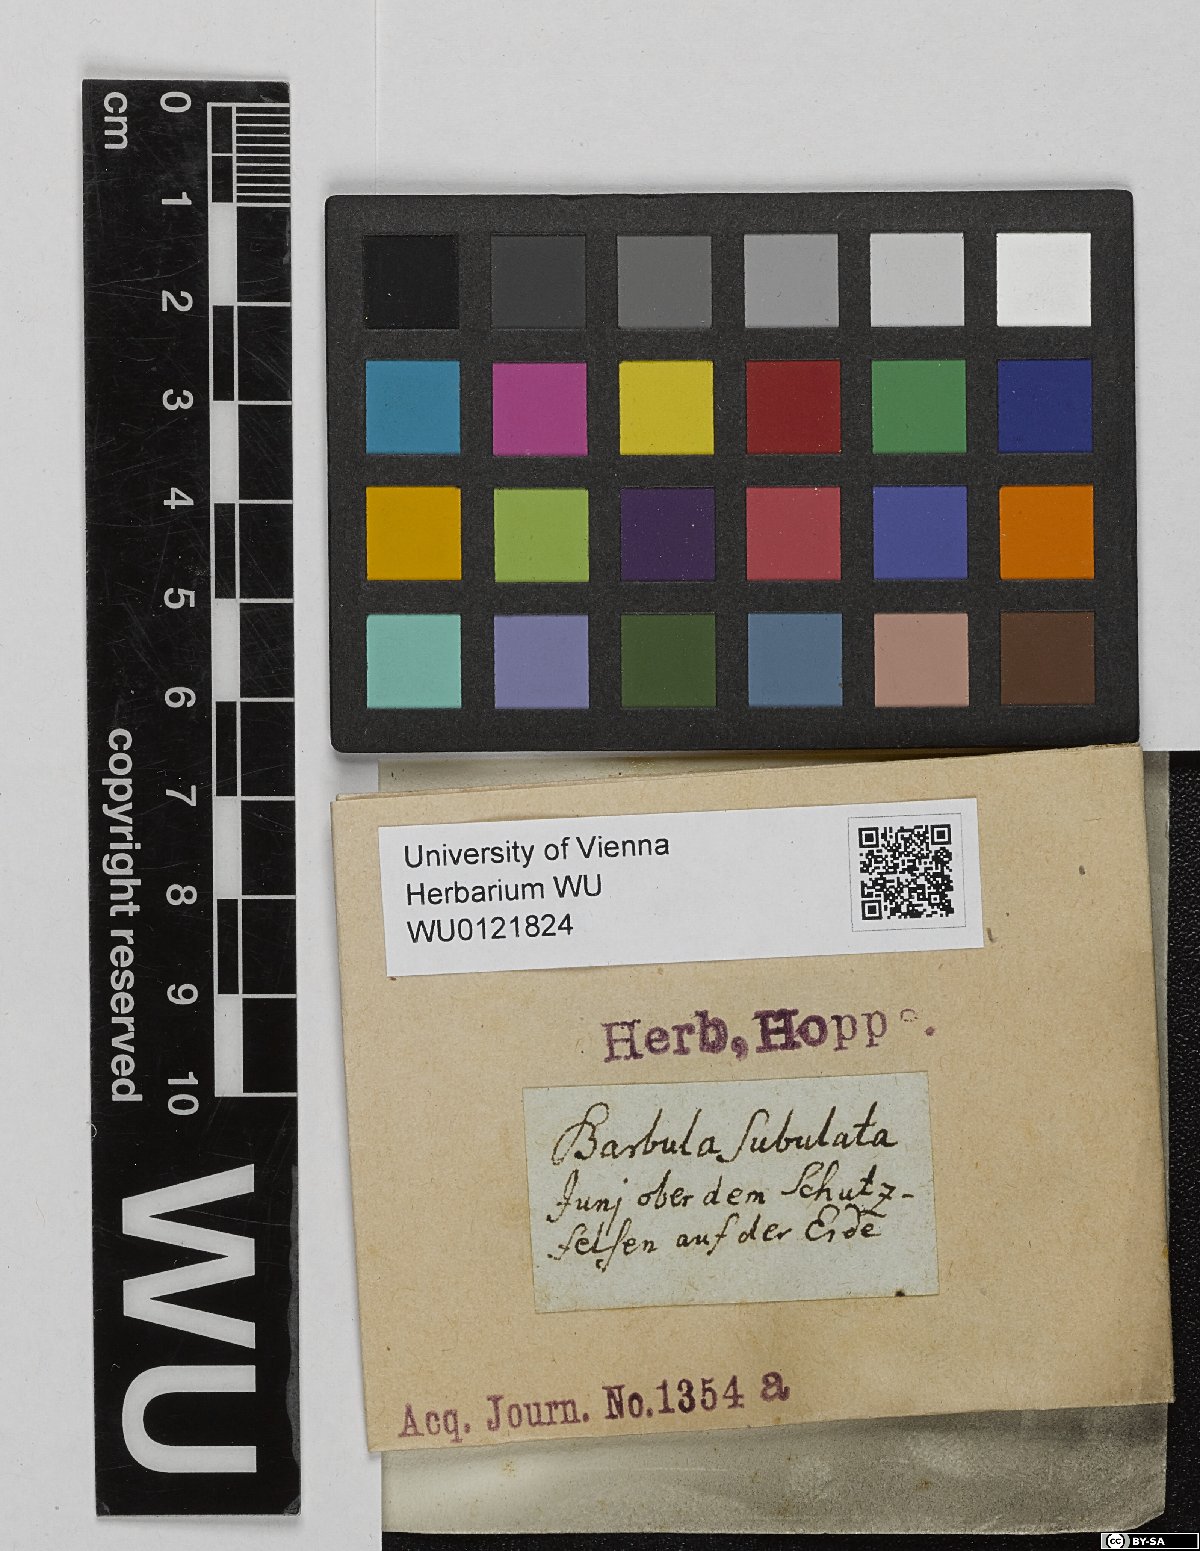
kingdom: Plantae
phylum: Bryophyta
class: Bryopsida
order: Pottiales
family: Pottiaceae
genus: Tortula
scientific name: Tortula subulata
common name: Upright screw-moss
